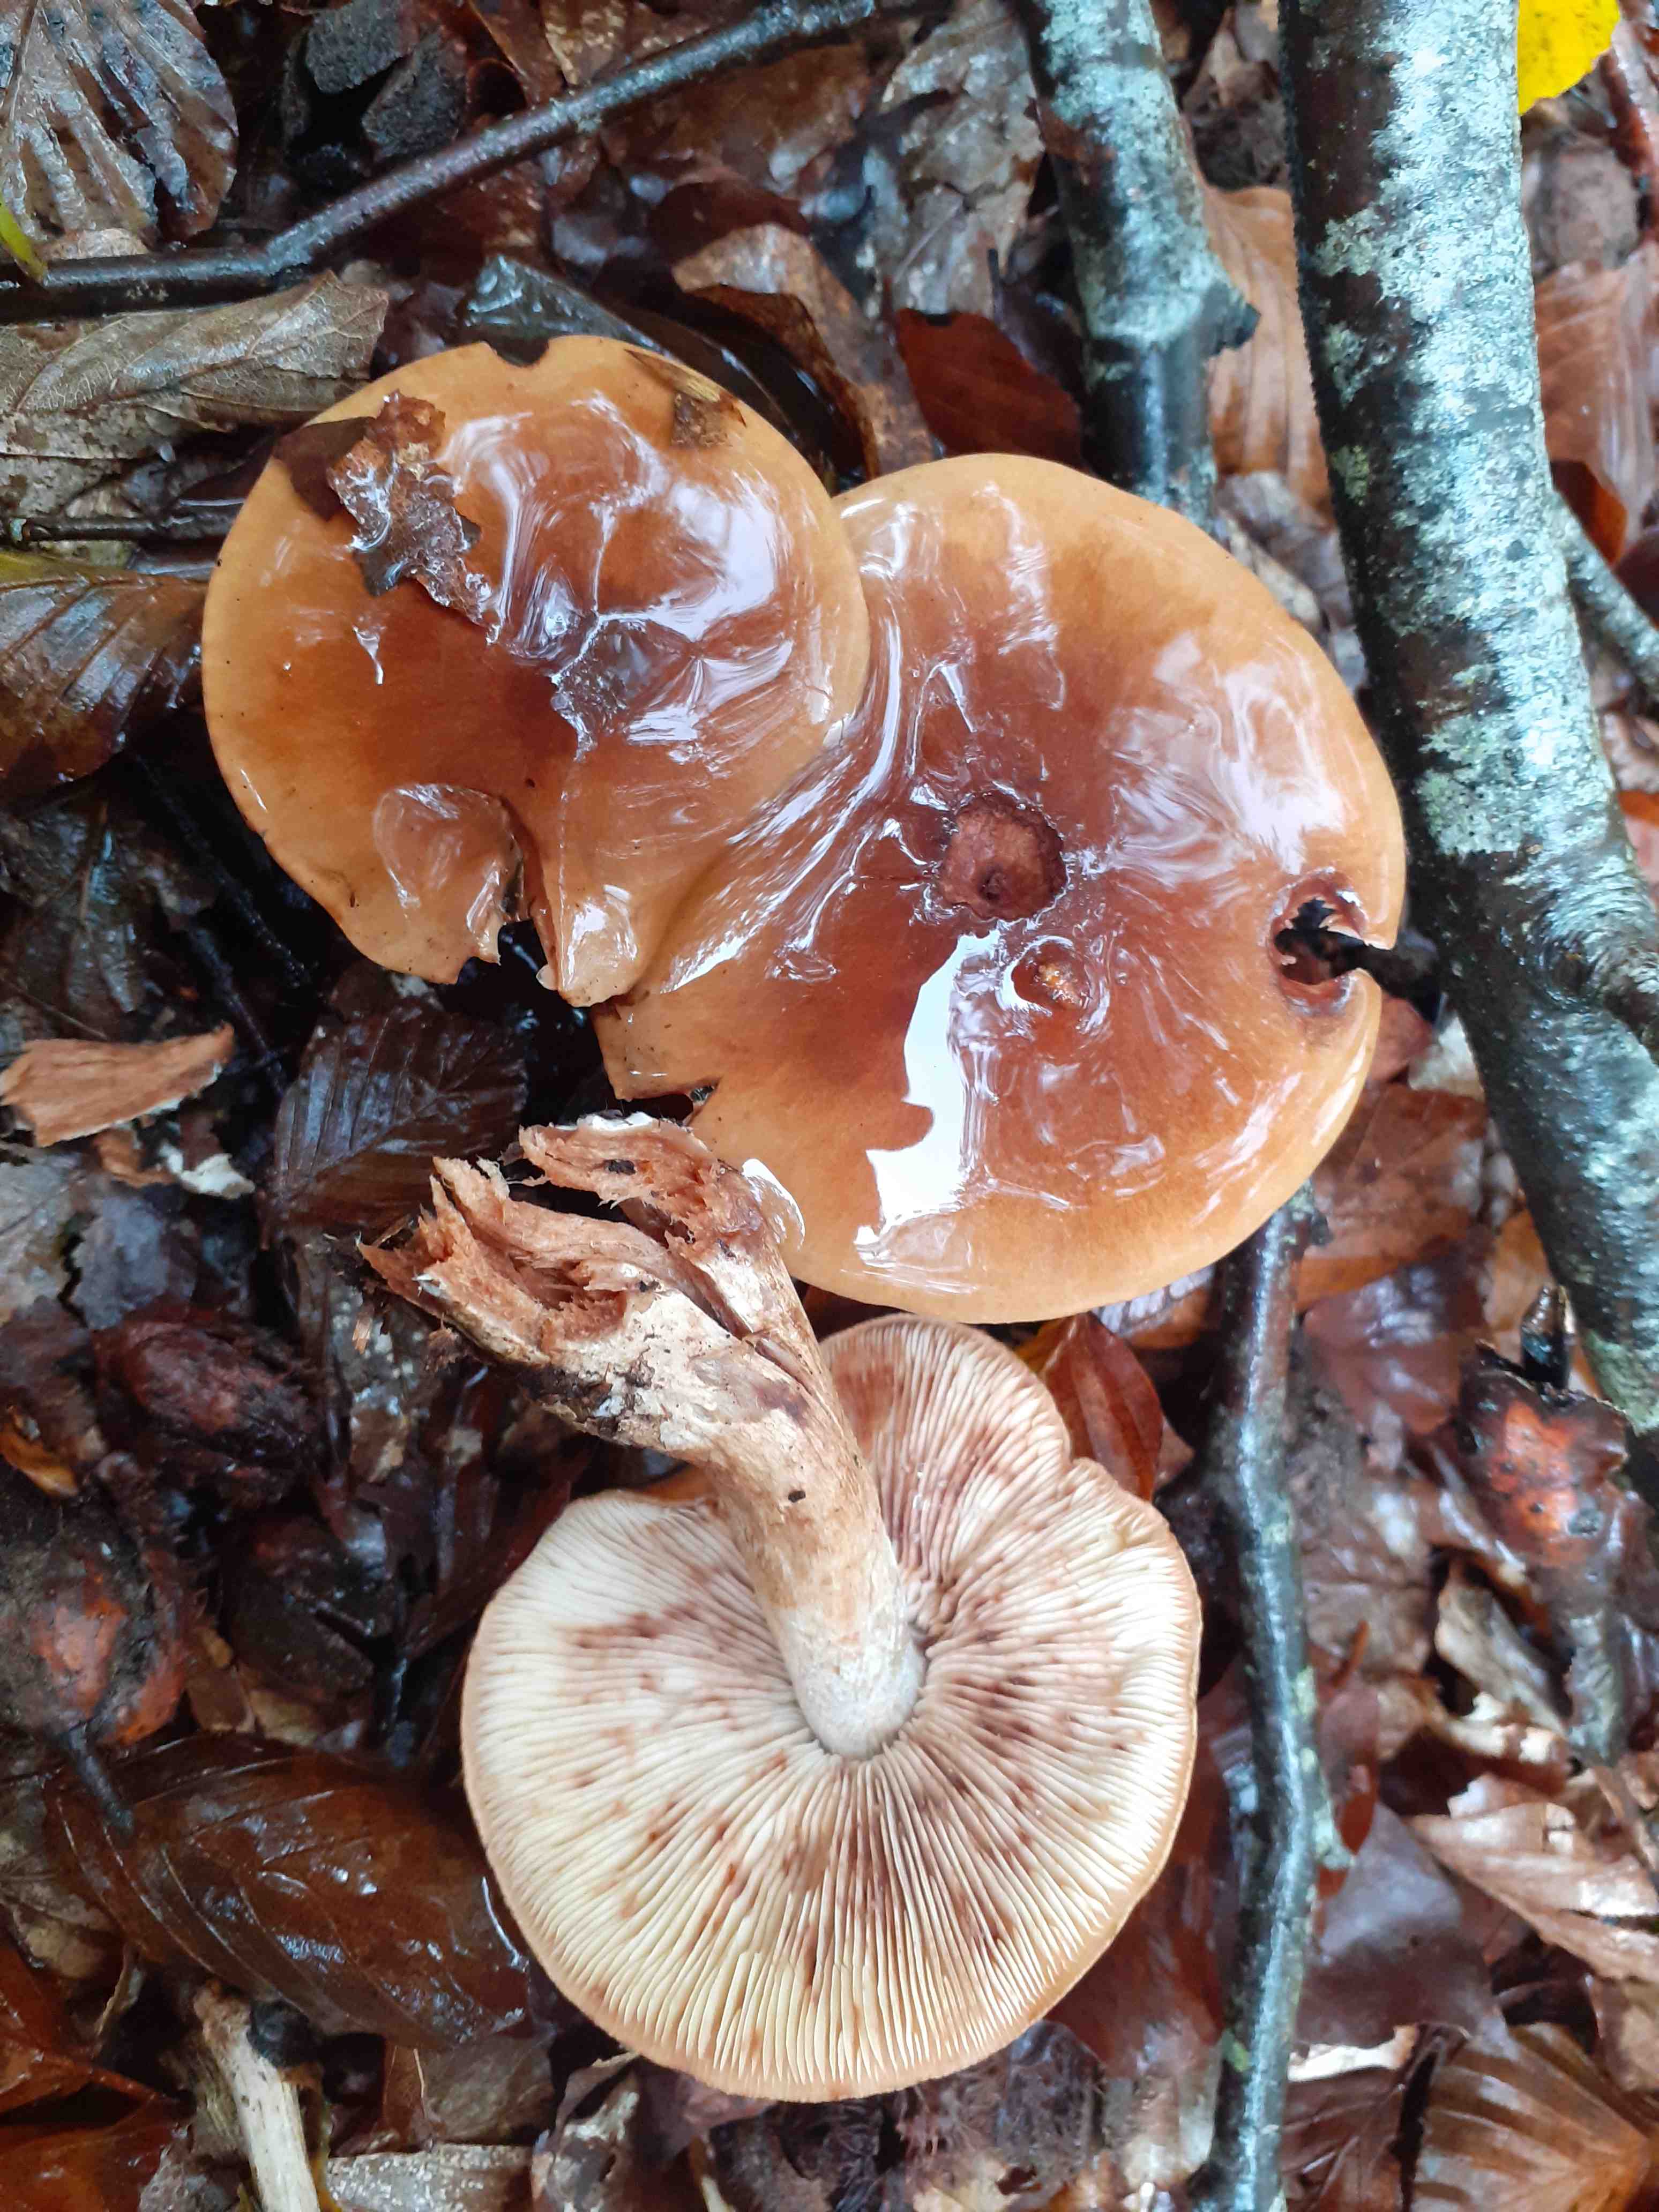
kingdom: Fungi
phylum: Basidiomycota
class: Agaricomycetes
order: Agaricales
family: Tricholomataceae
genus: Tricholoma
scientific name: Tricholoma ustale
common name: sveden ridderhat
